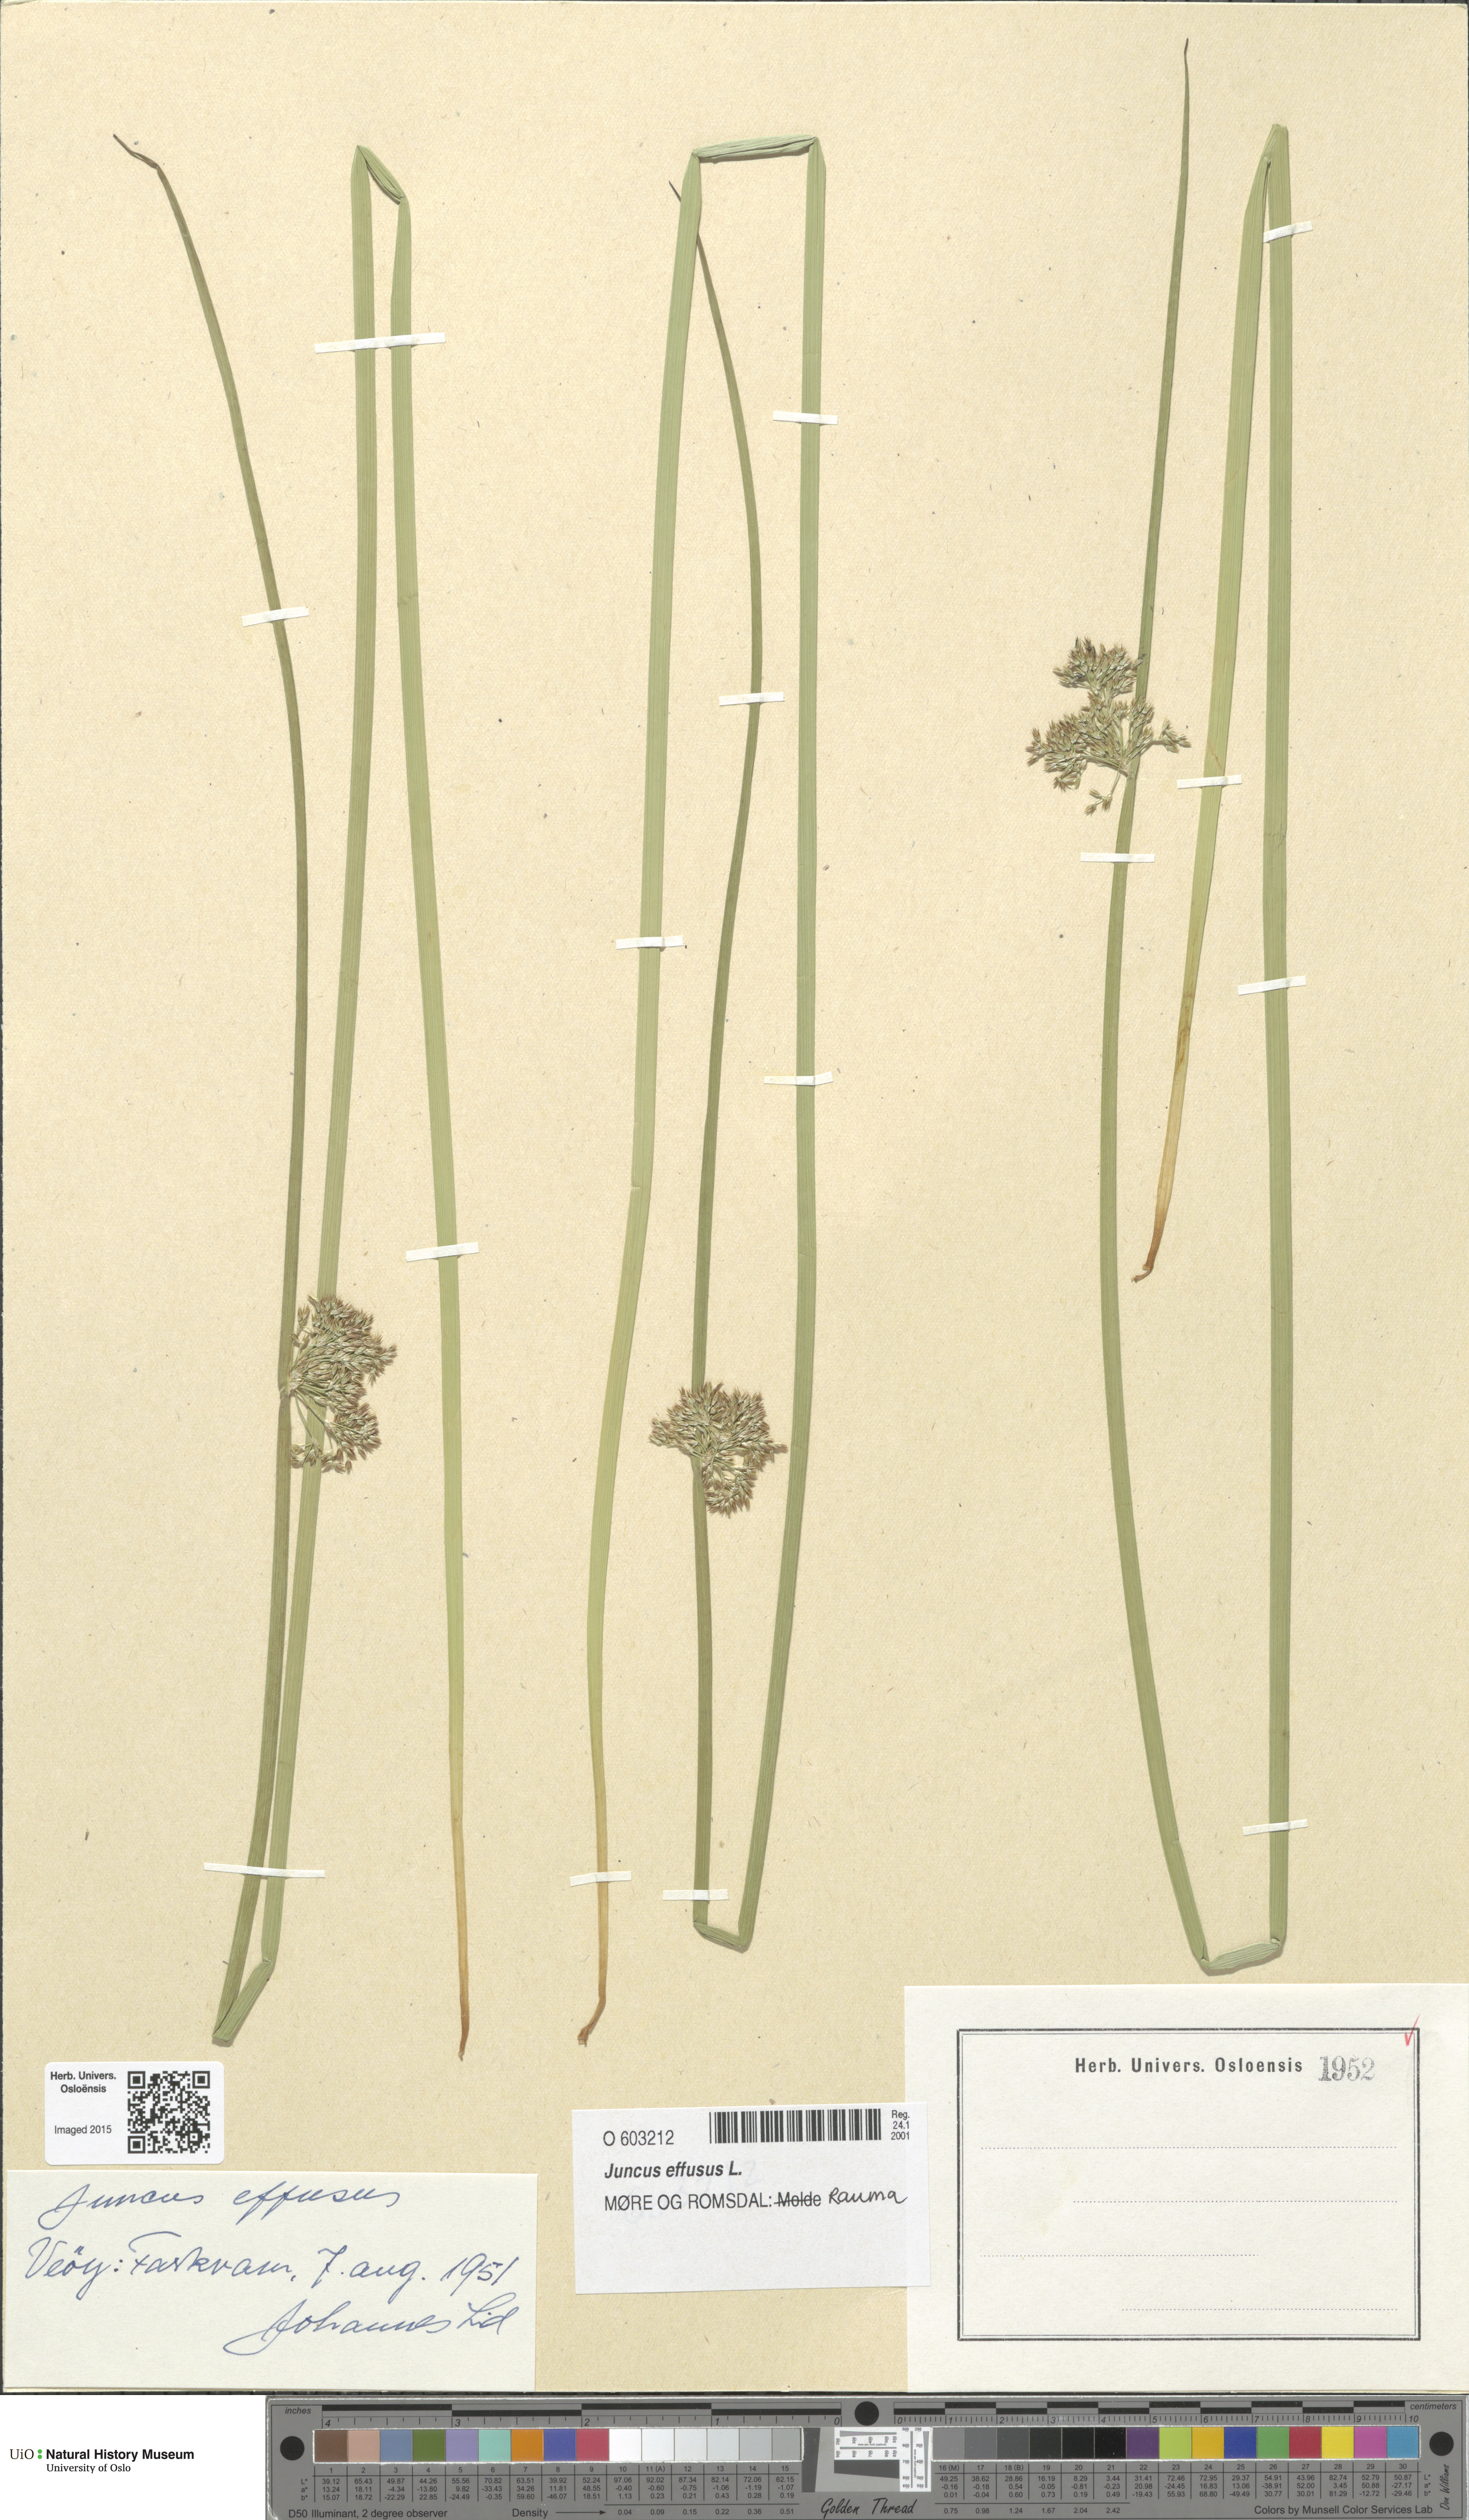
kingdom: Plantae
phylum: Tracheophyta
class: Liliopsida
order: Poales
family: Juncaceae
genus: Juncus
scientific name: Juncus effusus
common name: Soft rush
